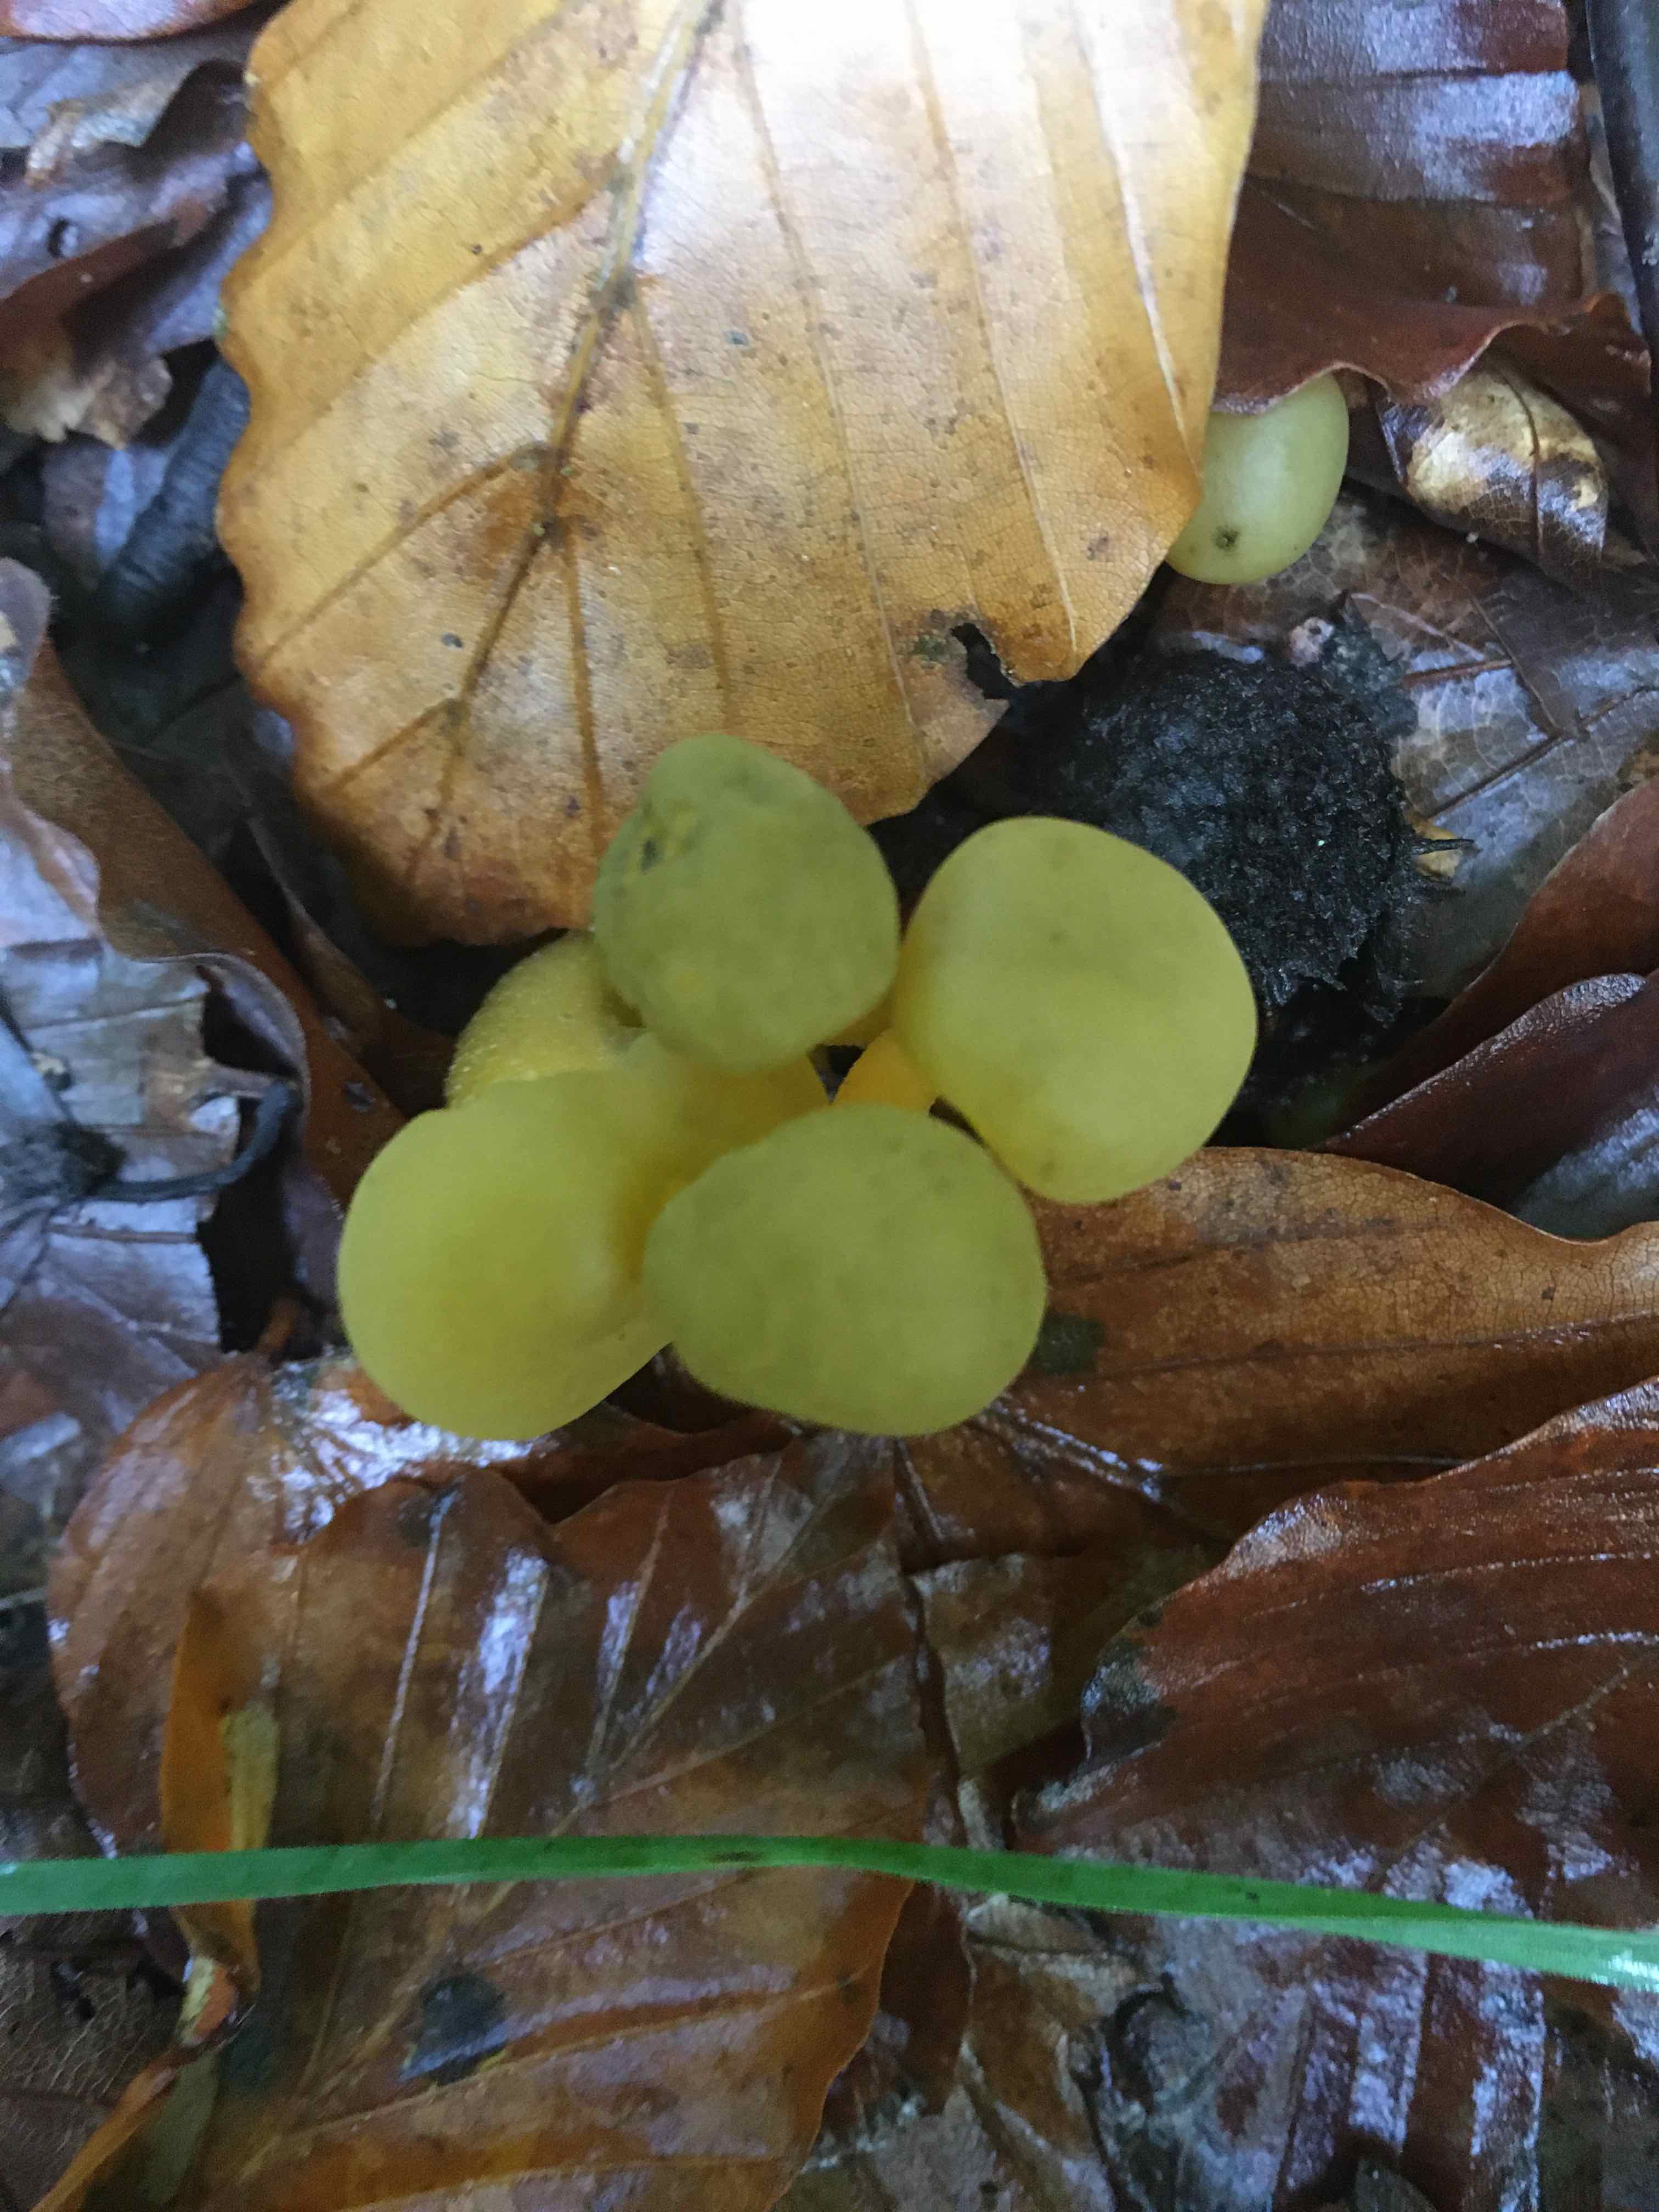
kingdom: Fungi
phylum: Ascomycota
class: Leotiomycetes
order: Leotiales
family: Leotiaceae
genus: Leotia
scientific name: Leotia lubrica
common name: ravsvamp
